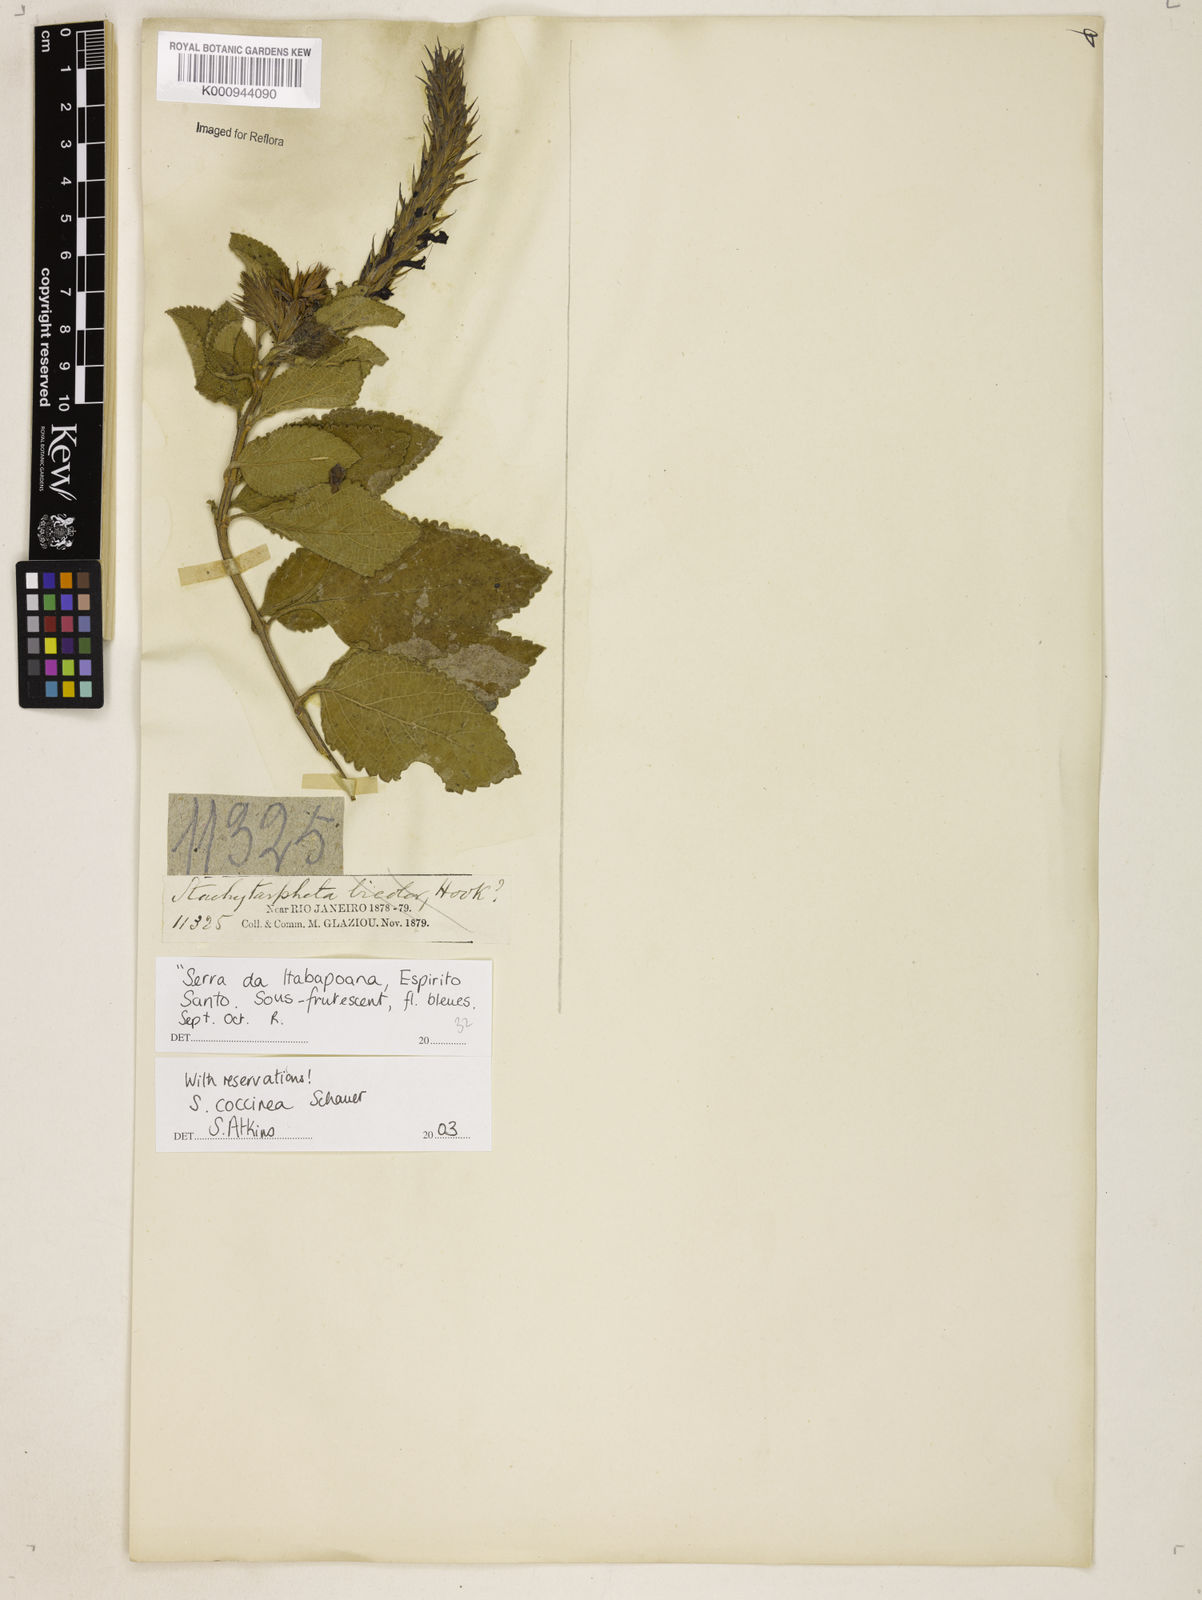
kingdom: Plantae
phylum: Tracheophyta
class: Magnoliopsida
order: Lamiales
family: Verbenaceae
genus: Stachytarpheta
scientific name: Stachytarpheta coccinea
